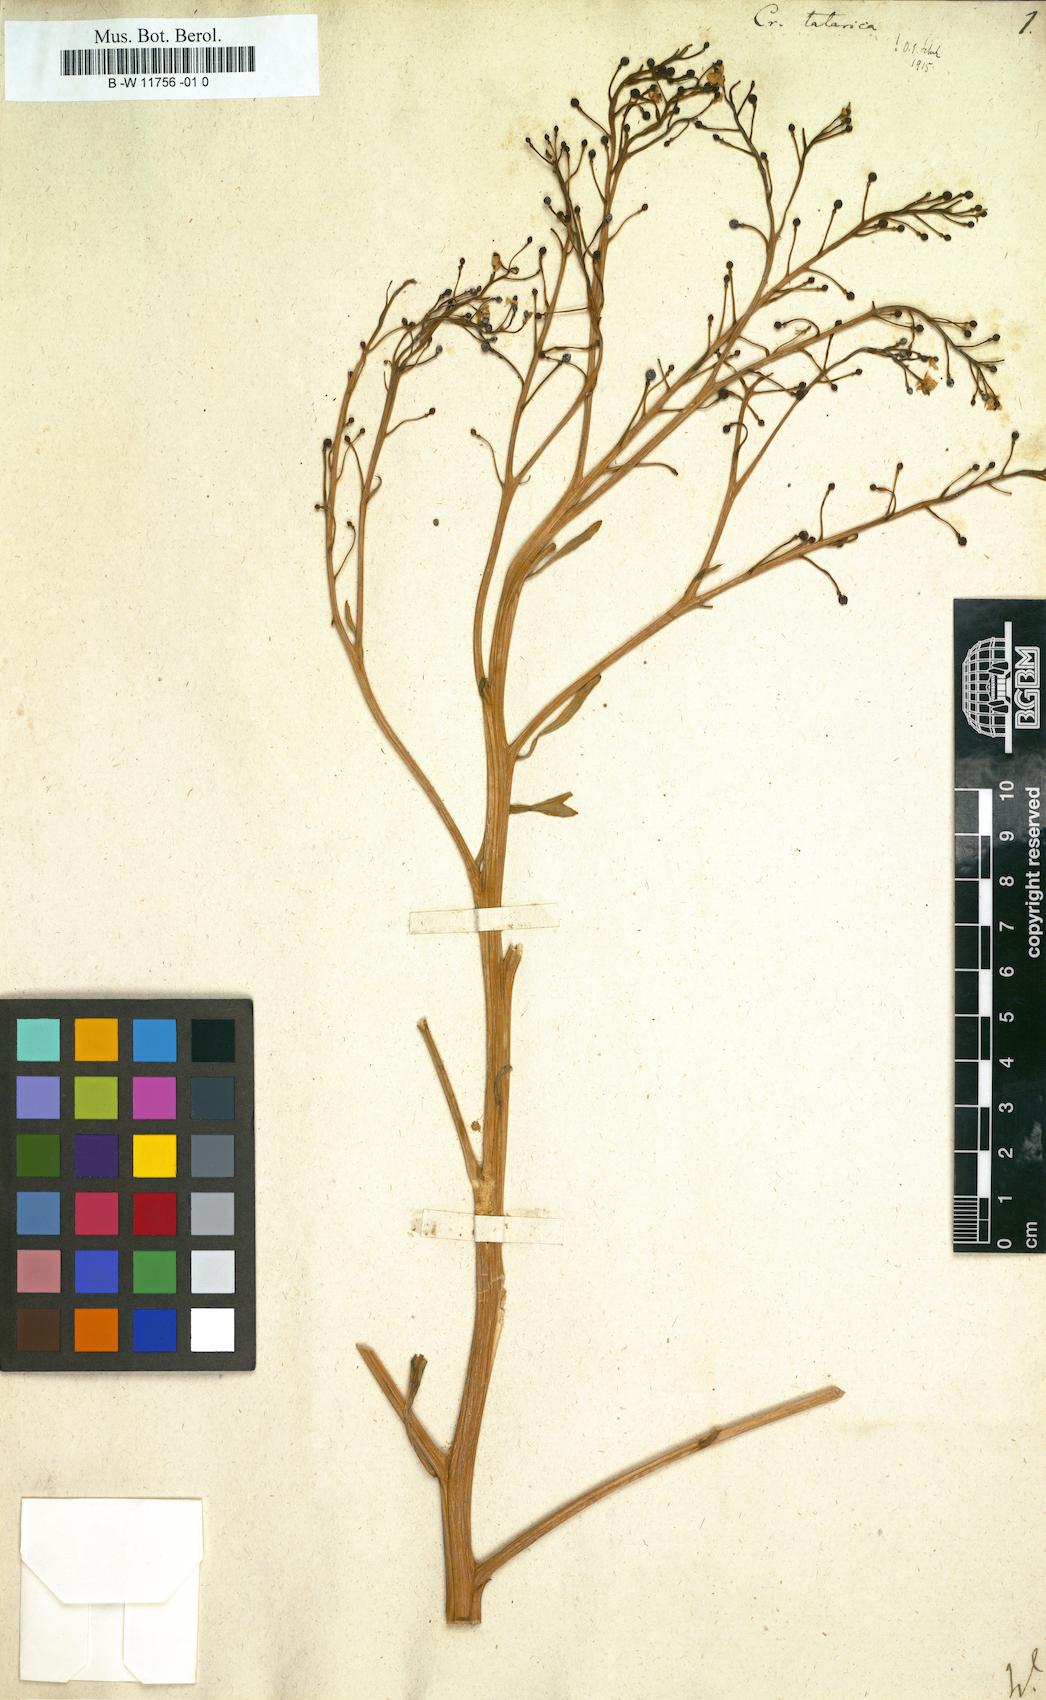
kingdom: Plantae
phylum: Tracheophyta
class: Magnoliopsida
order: Brassicales
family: Brassicaceae
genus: Crambe
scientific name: Crambe tatarica
